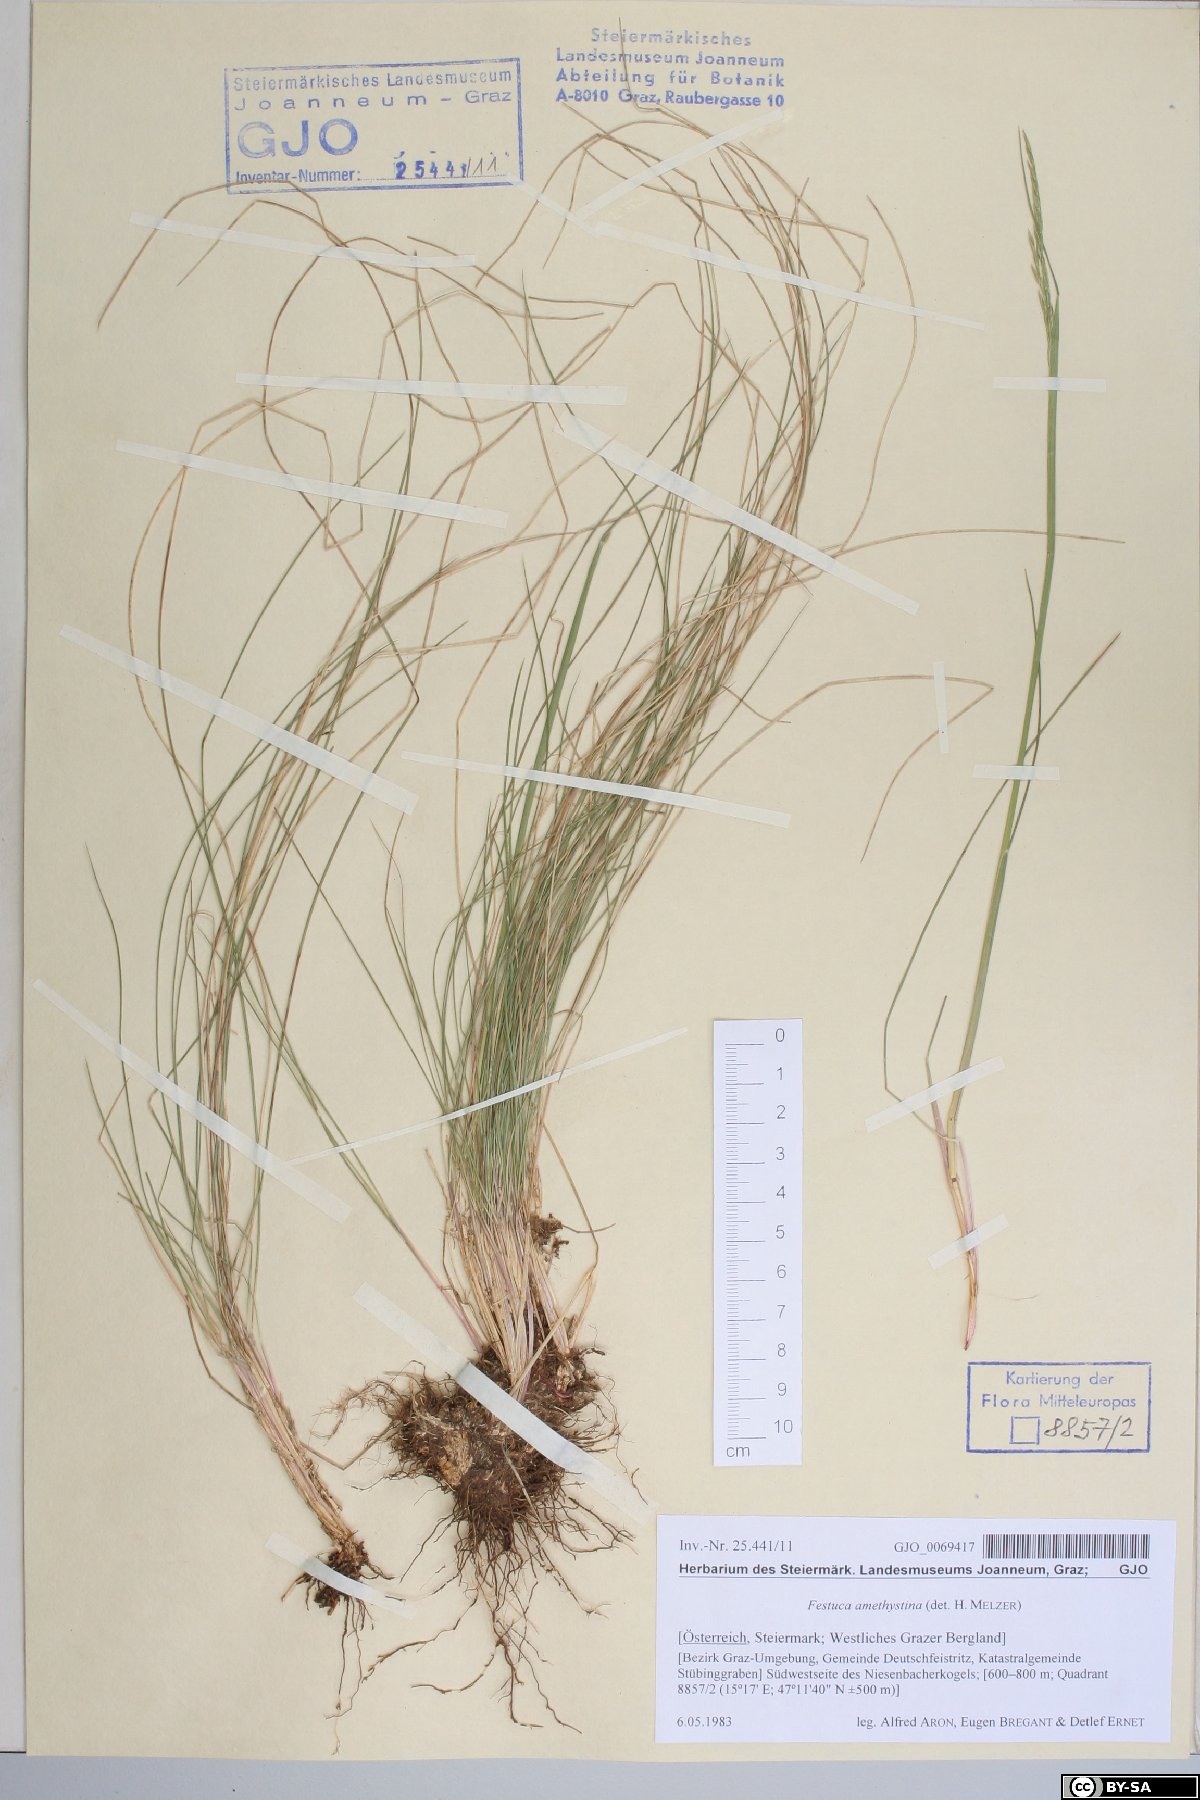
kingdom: Plantae
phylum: Tracheophyta
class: Liliopsida
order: Poales
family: Poaceae
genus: Festuca
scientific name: Festuca amethystina
